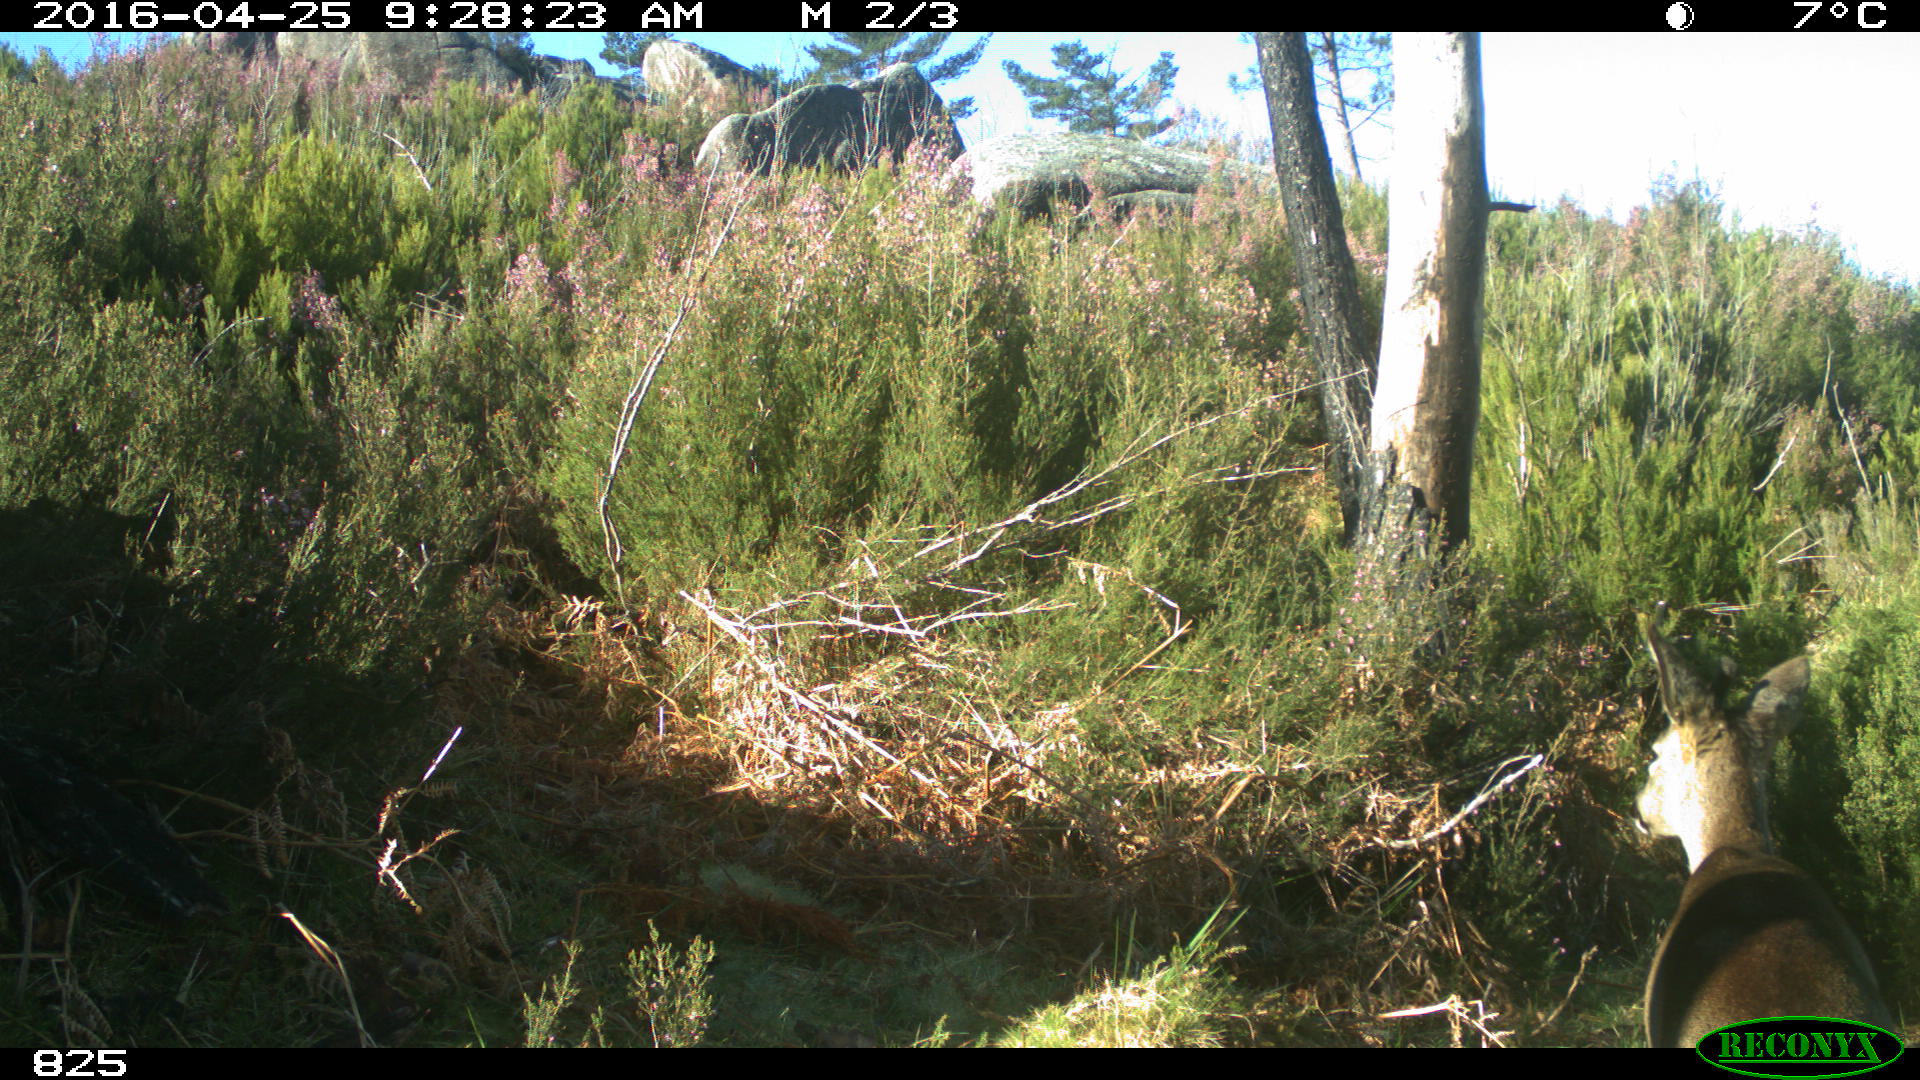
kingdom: Animalia
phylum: Chordata
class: Mammalia
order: Artiodactyla
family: Cervidae
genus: Capreolus
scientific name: Capreolus capreolus
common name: Western roe deer
